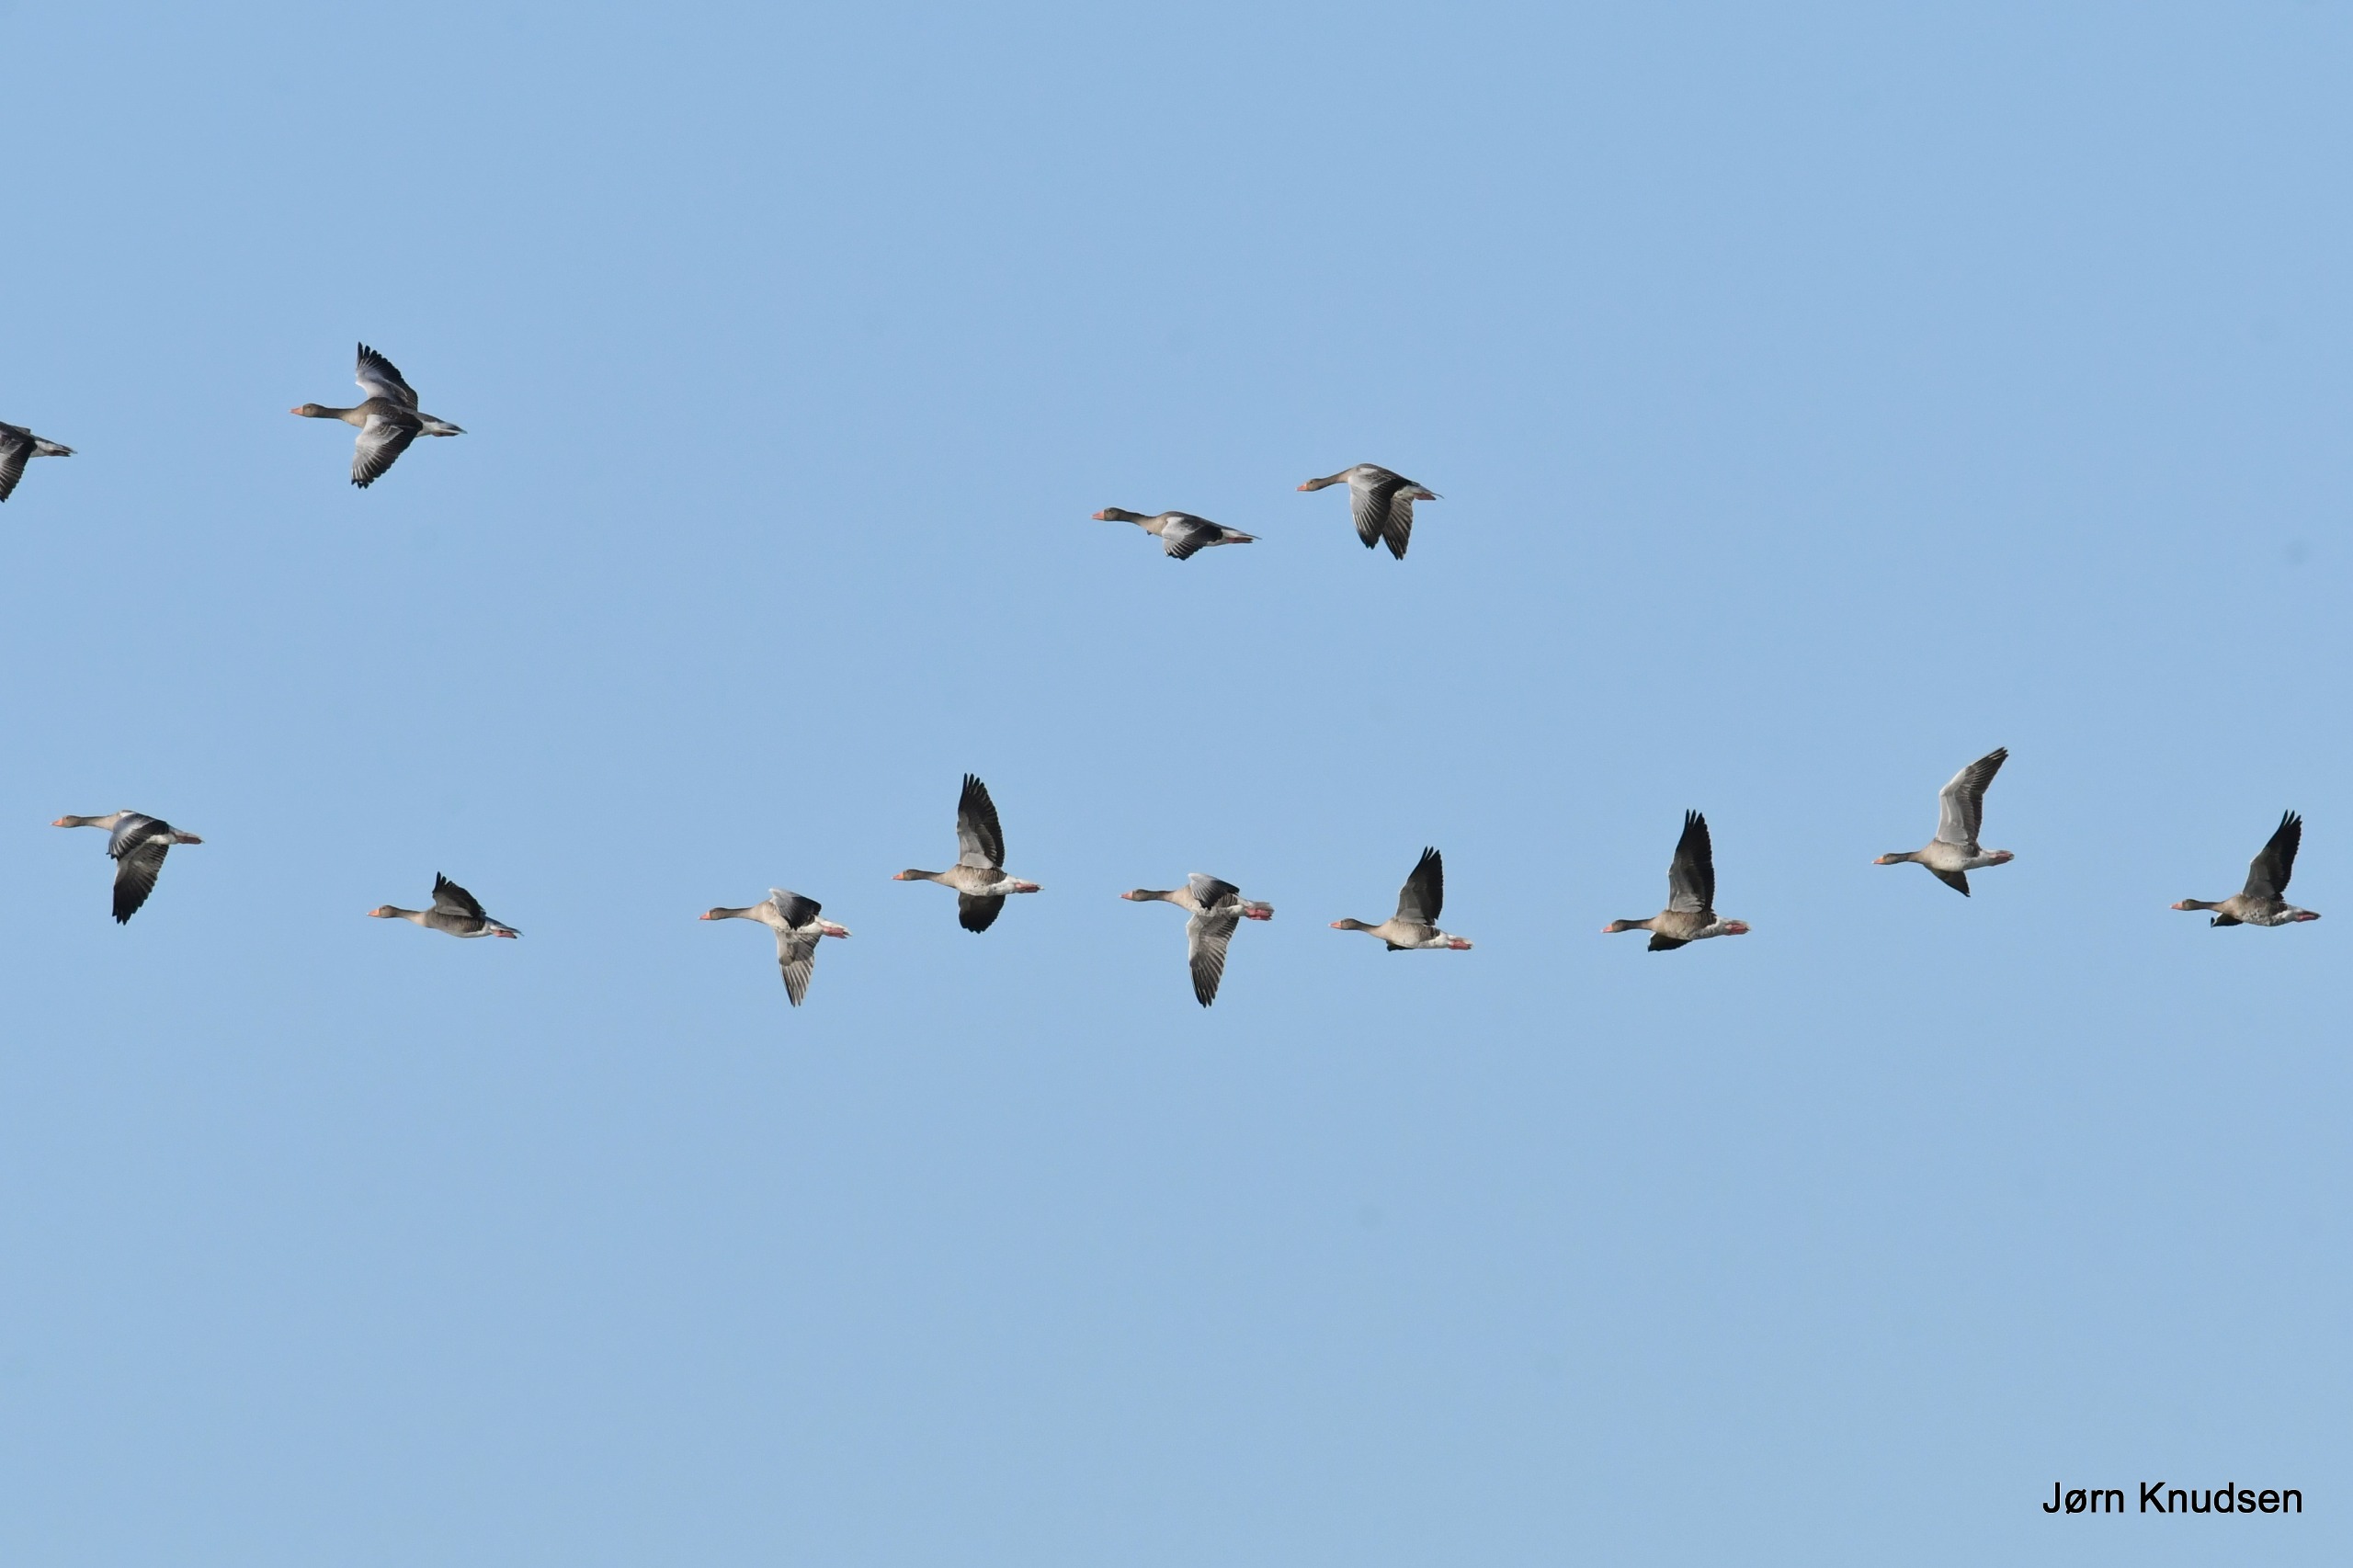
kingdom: Animalia
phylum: Chordata
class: Aves
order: Anseriformes
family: Anatidae
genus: Anser
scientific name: Anser anser
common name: Grågås
